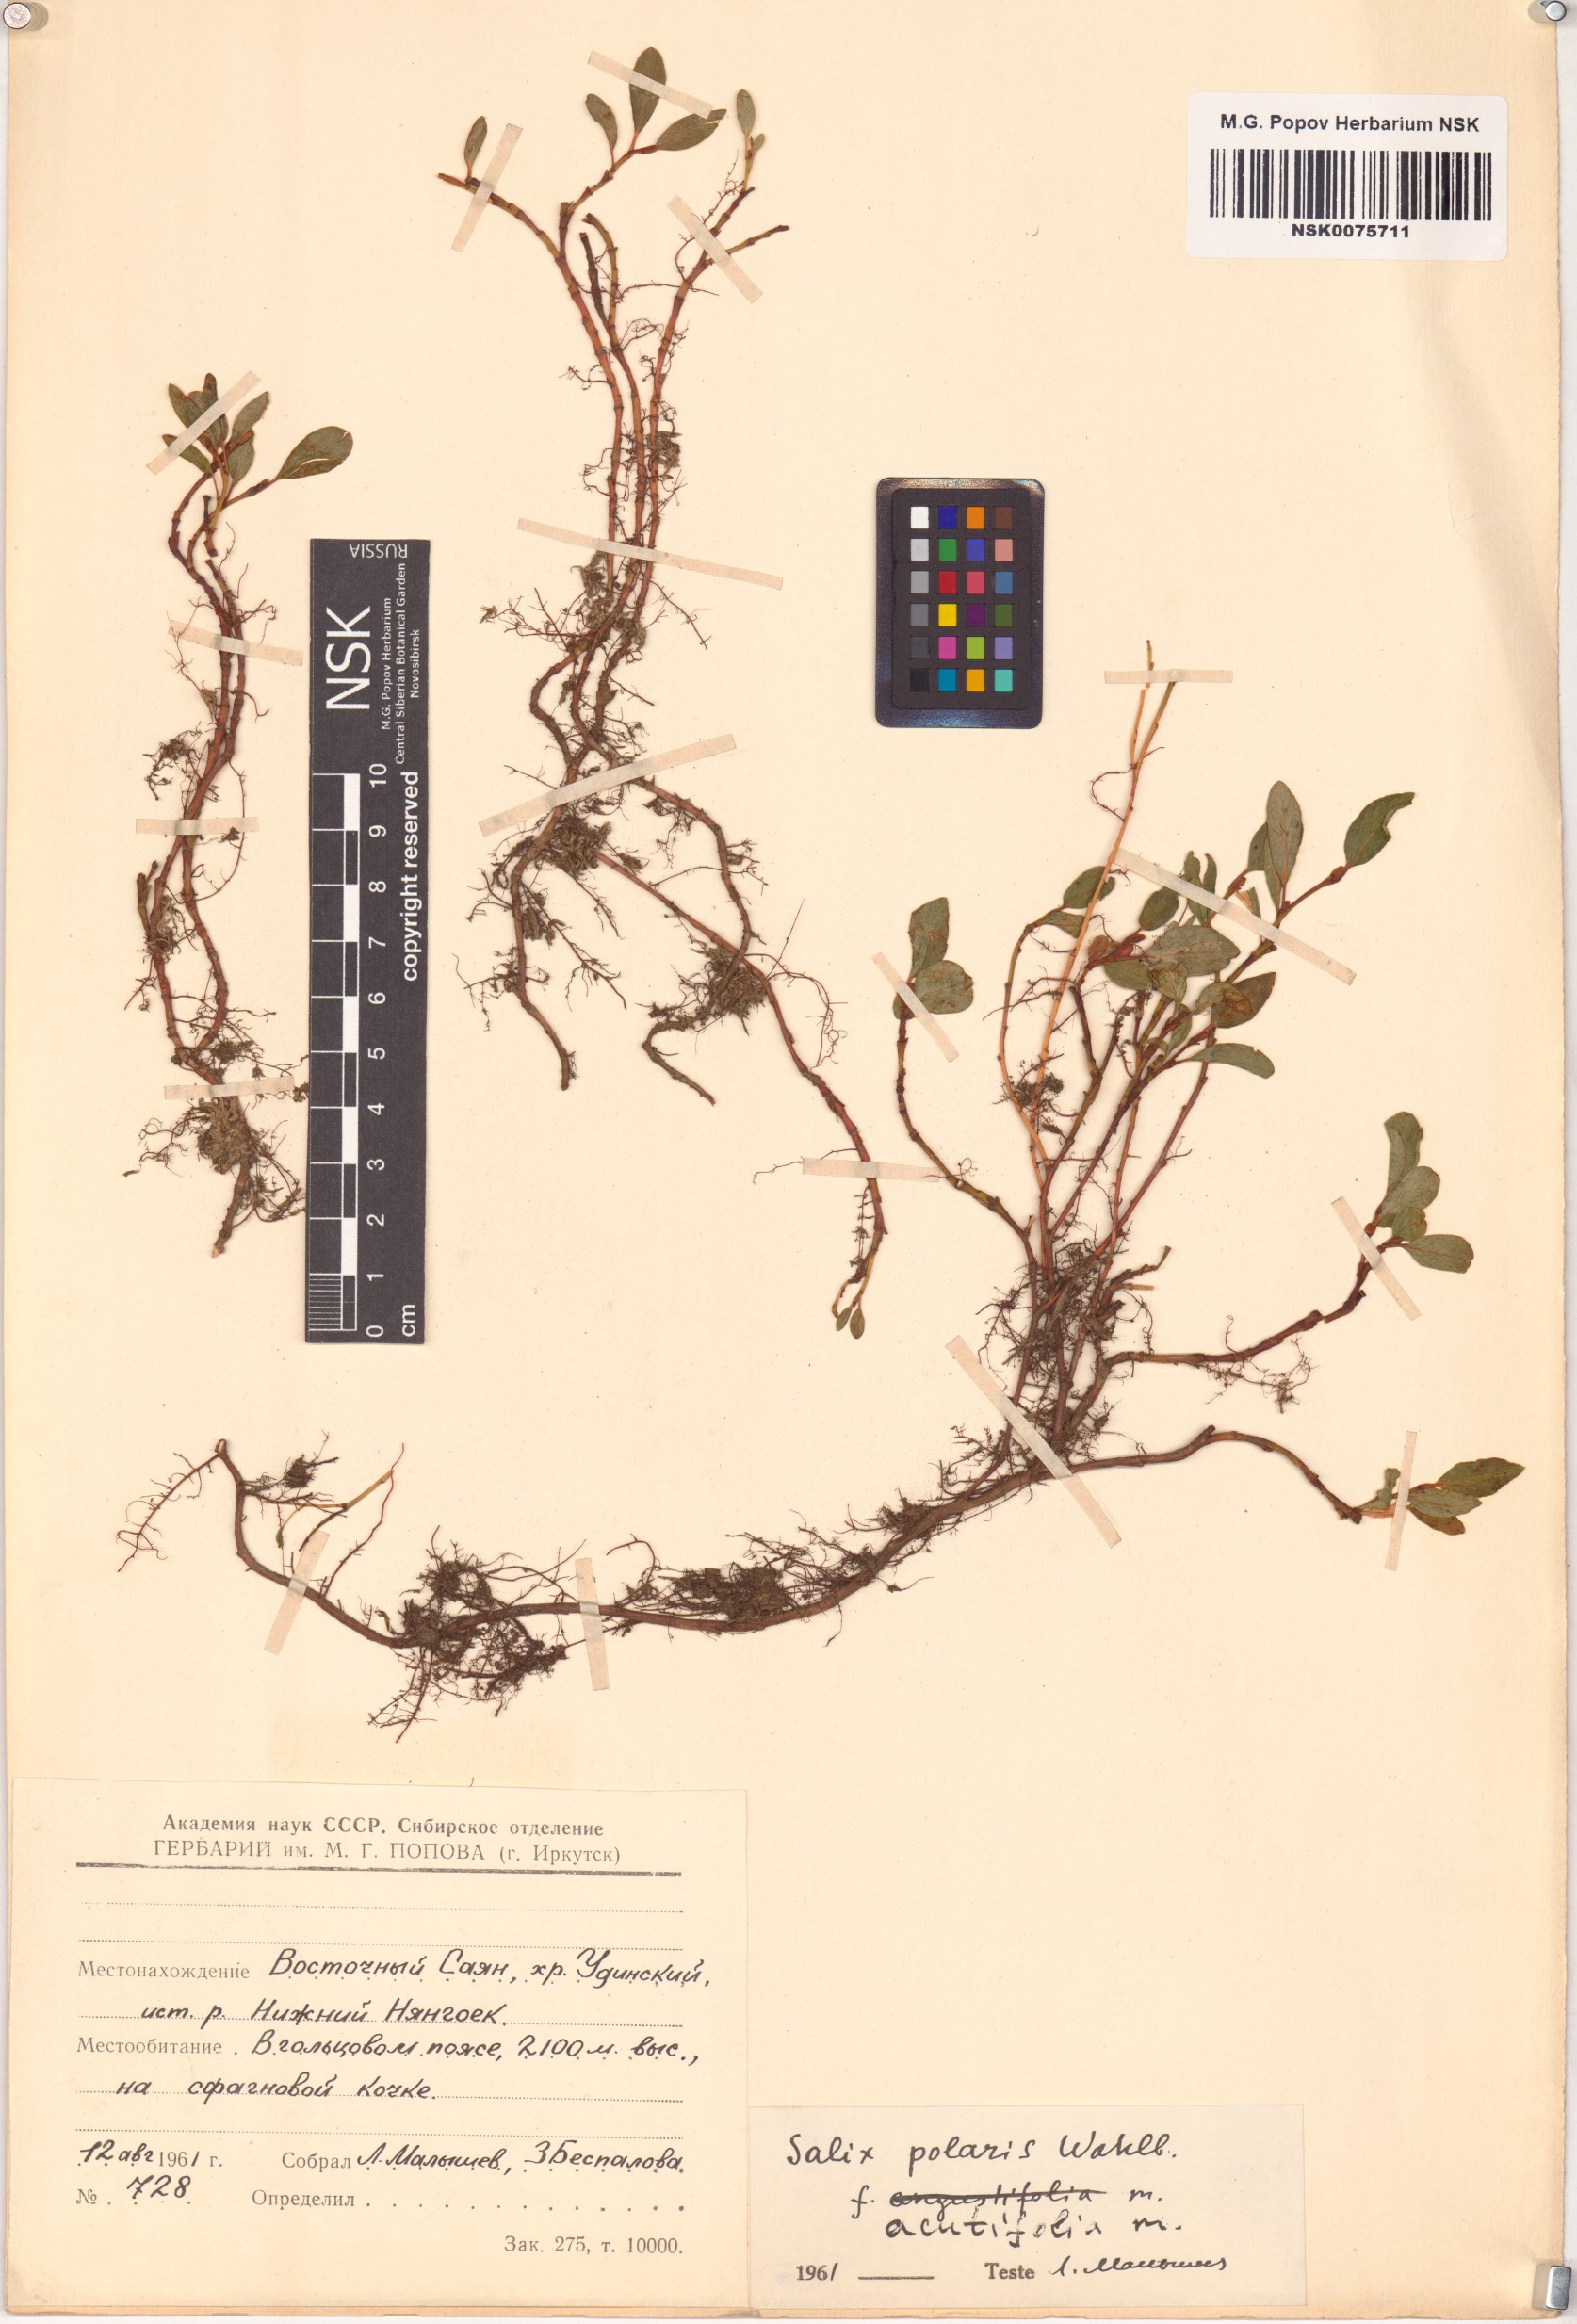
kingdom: Plantae
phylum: Tracheophyta
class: Magnoliopsida
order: Malpighiales
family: Salicaceae
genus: Salix
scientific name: Salix polaris
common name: Polar willow
